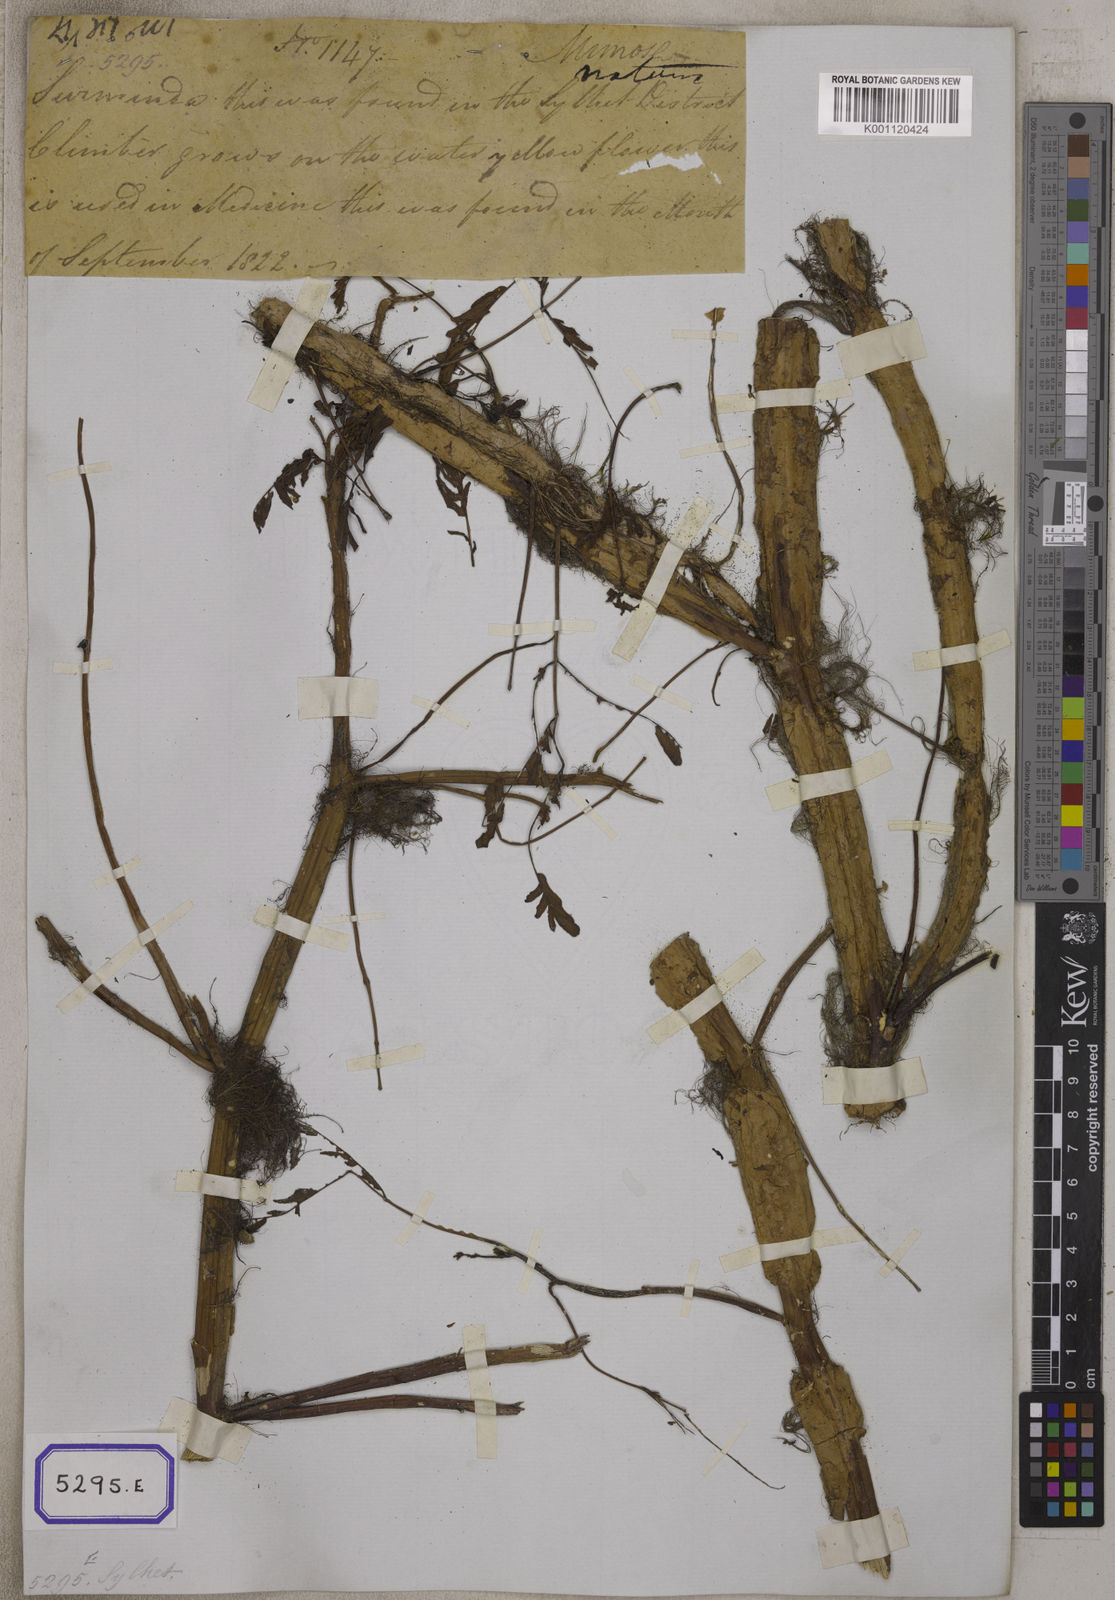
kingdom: Plantae
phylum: Tracheophyta
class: Magnoliopsida
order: Fabales
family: Fabaceae
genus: Neptunia
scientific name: Neptunia prostrata
